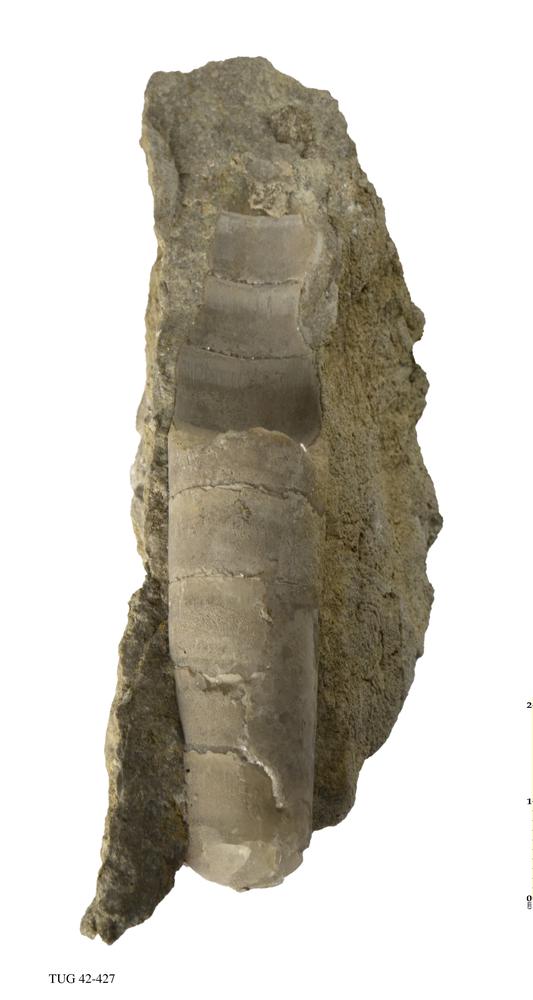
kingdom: Animalia
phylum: Mollusca
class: Cephalopoda
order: Orthocerida
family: Orthoceratidae
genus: Orthoceras
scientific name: Orthoceras
